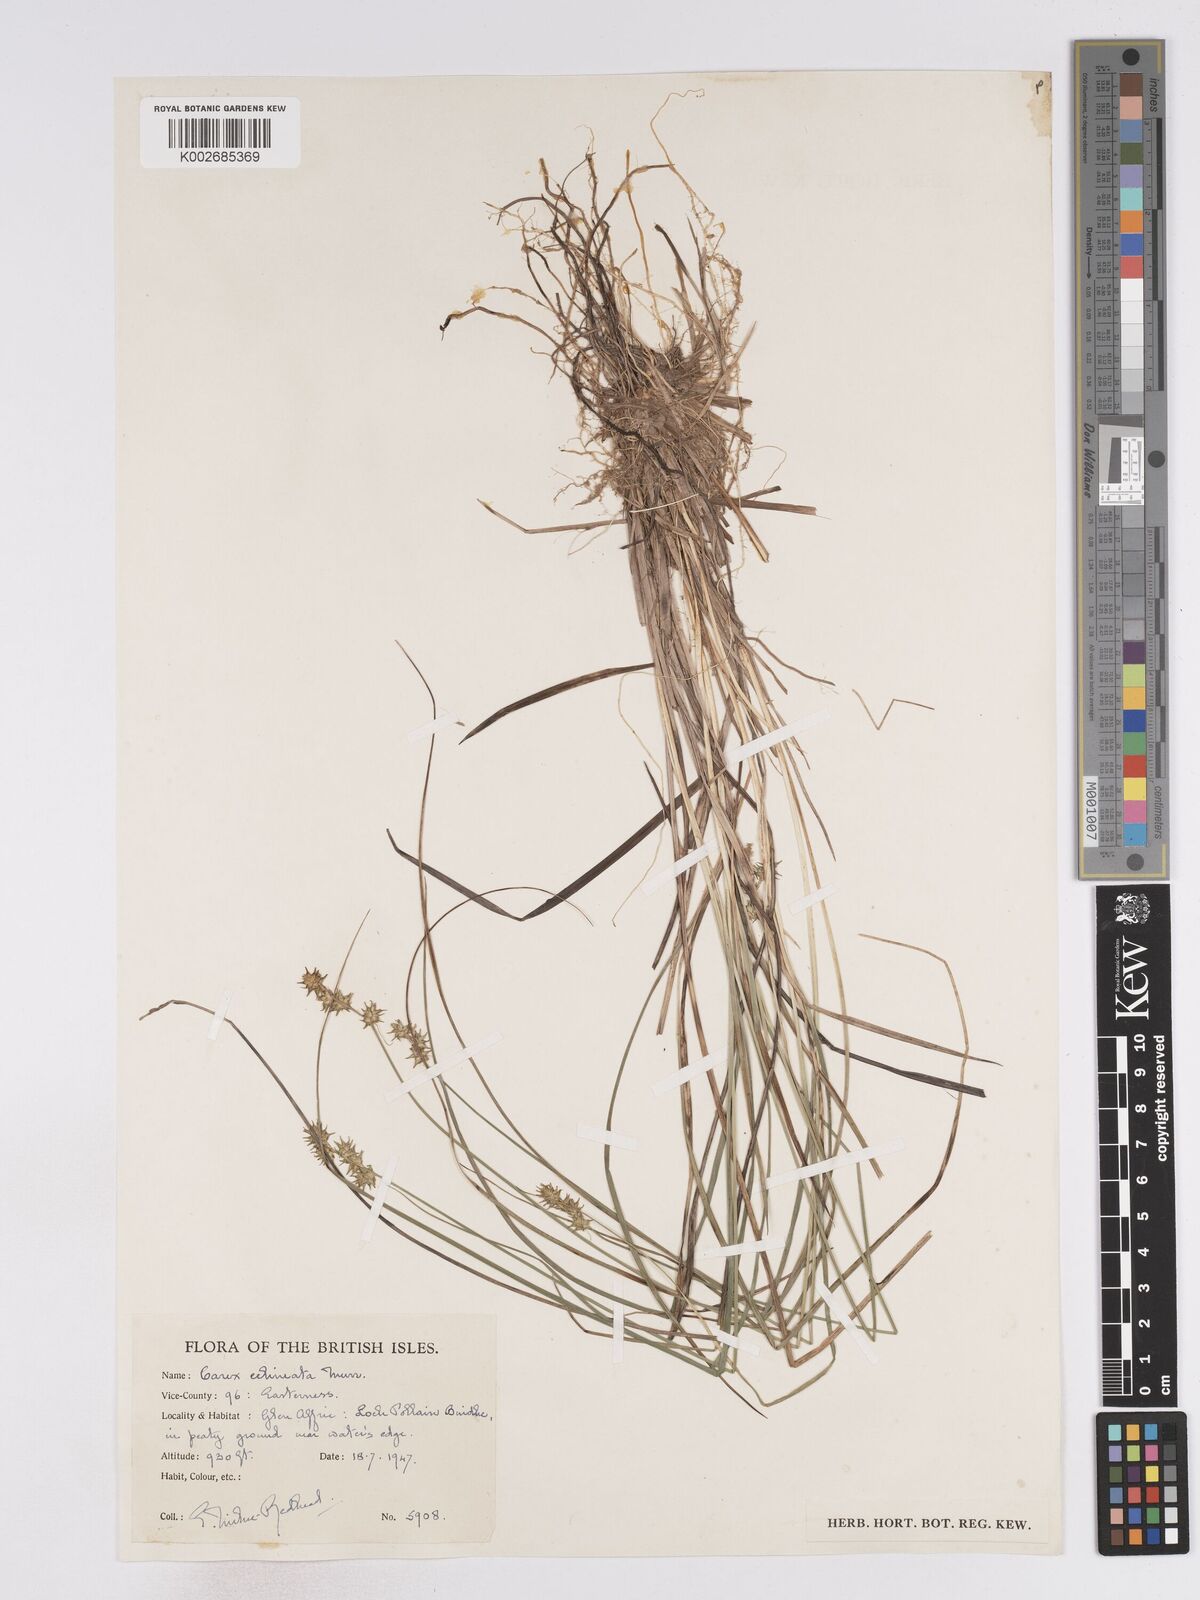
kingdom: Plantae
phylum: Tracheophyta
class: Liliopsida
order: Poales
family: Cyperaceae
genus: Carex
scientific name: Carex echinata
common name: Star sedge
